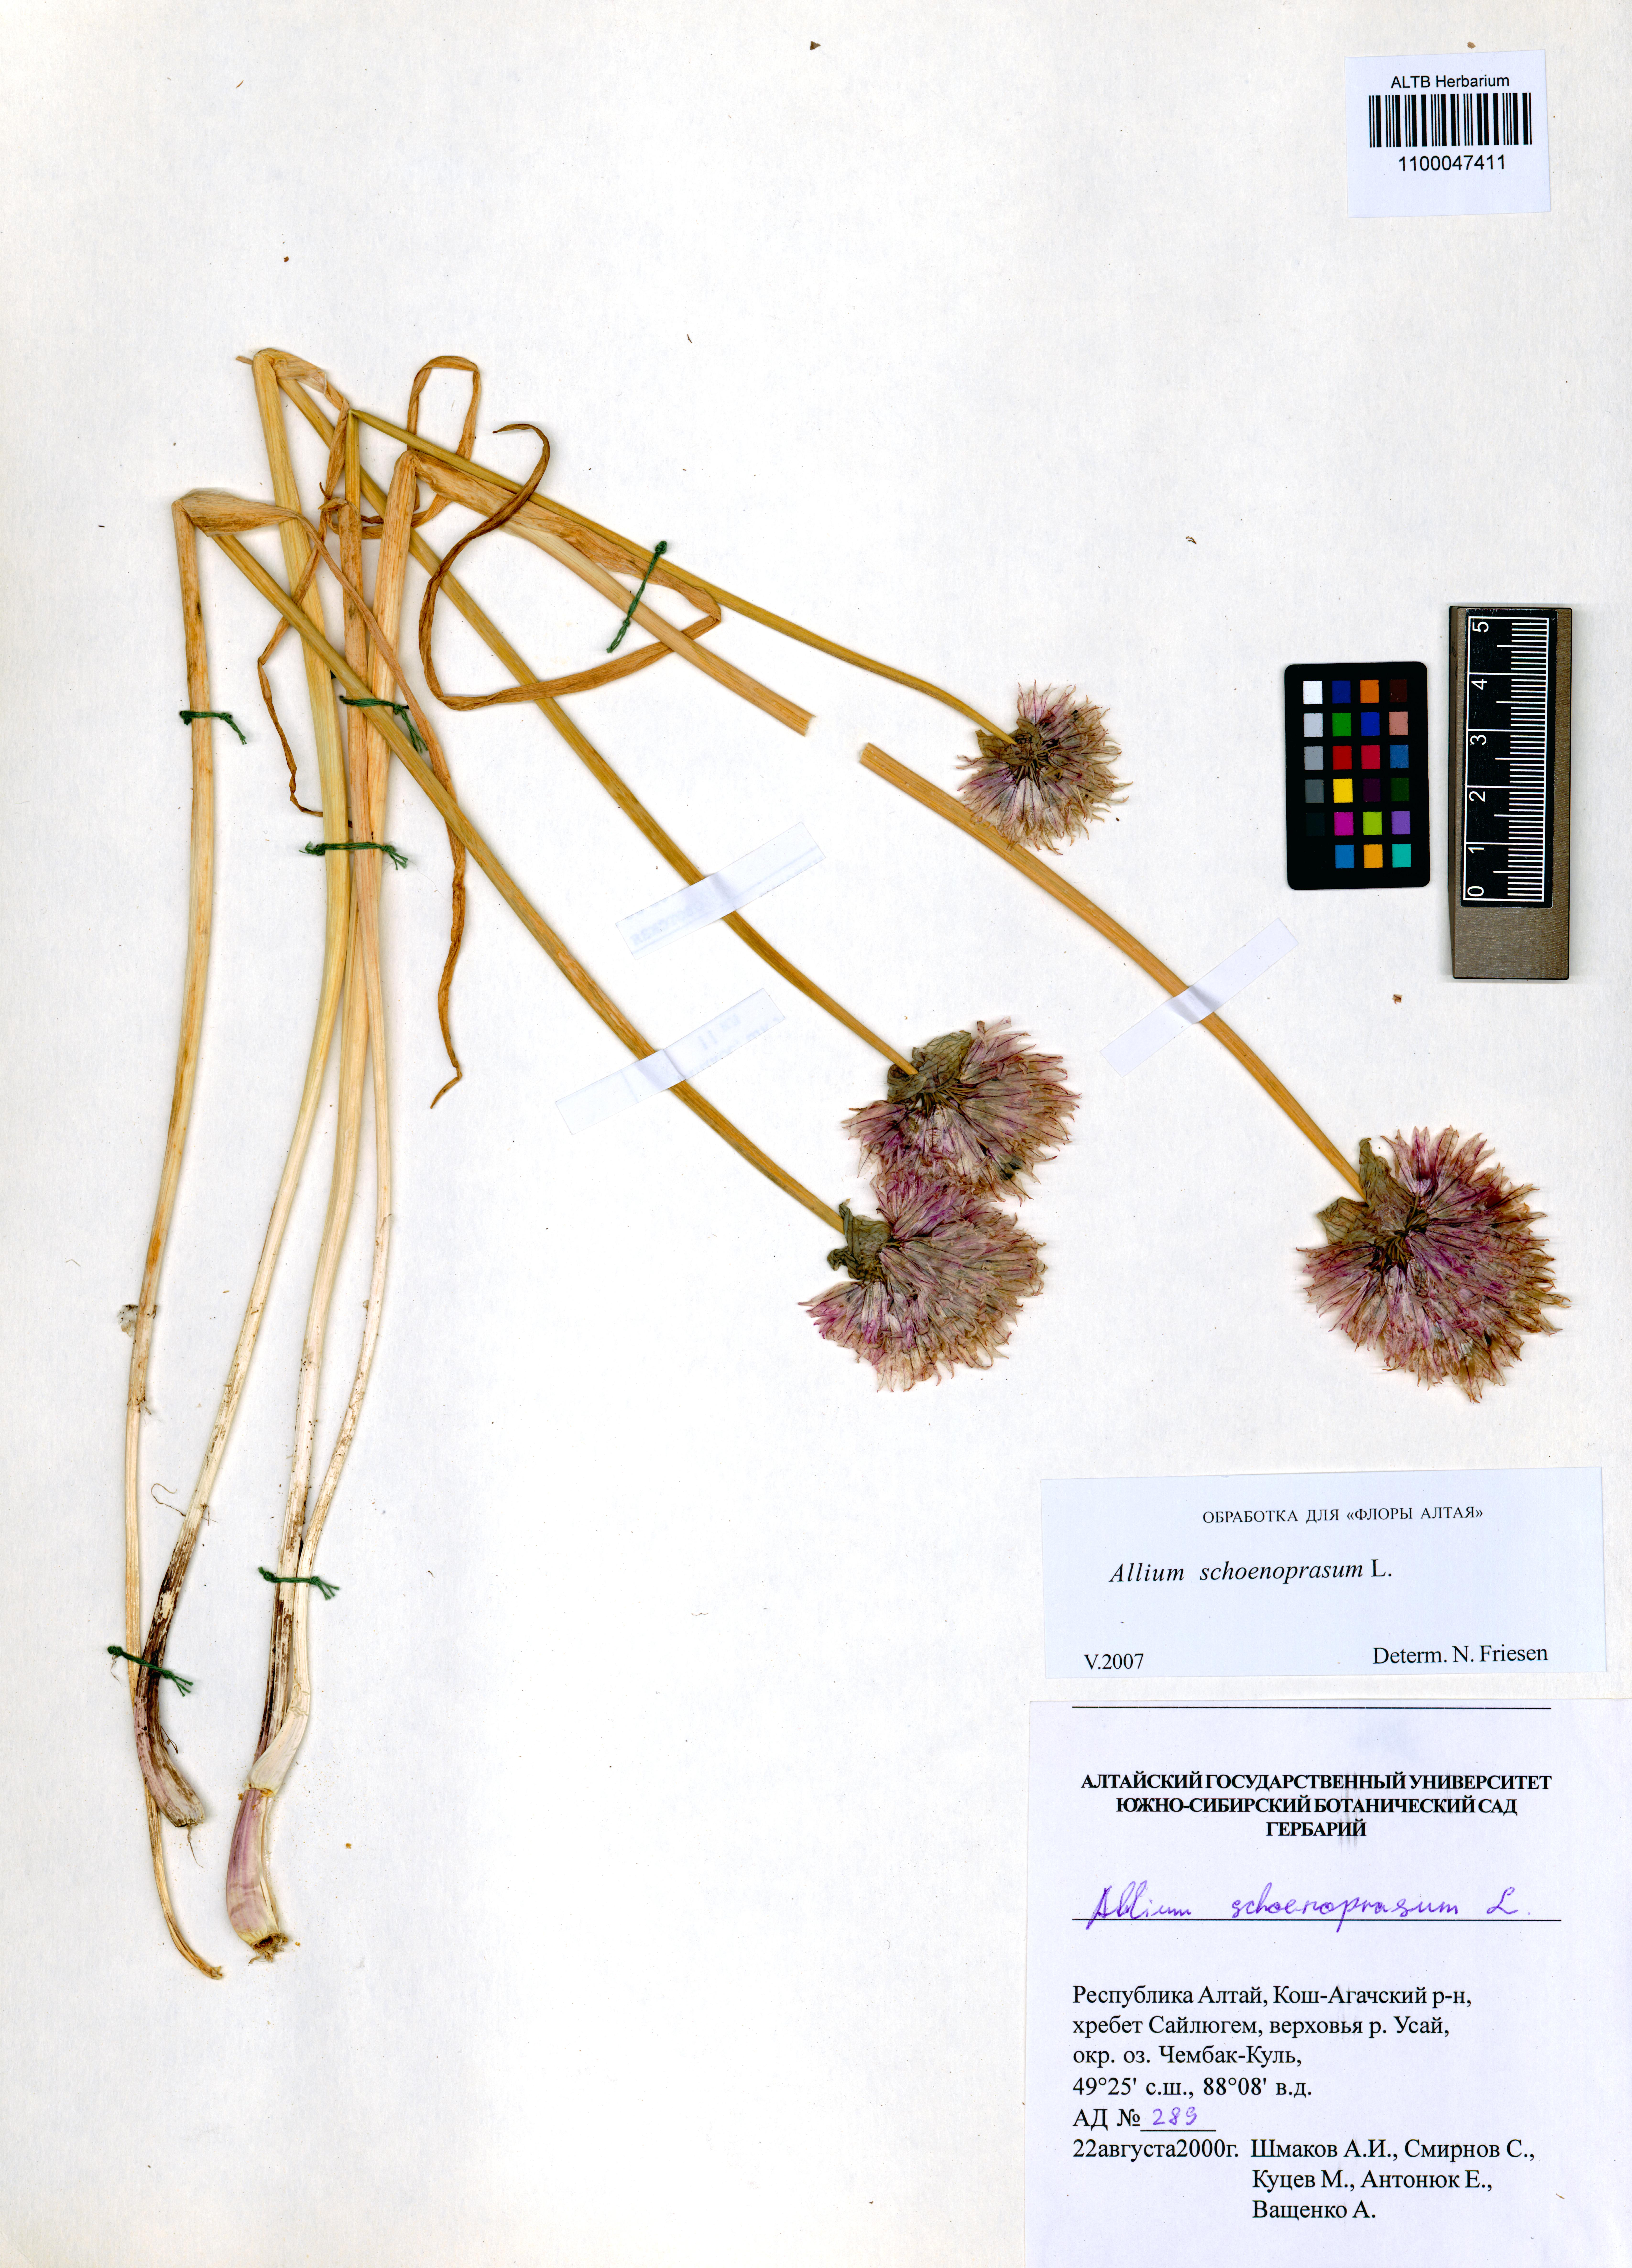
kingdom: Plantae
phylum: Tracheophyta
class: Liliopsida
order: Asparagales
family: Amaryllidaceae
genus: Allium
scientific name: Allium schoenoprasum
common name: Chives
